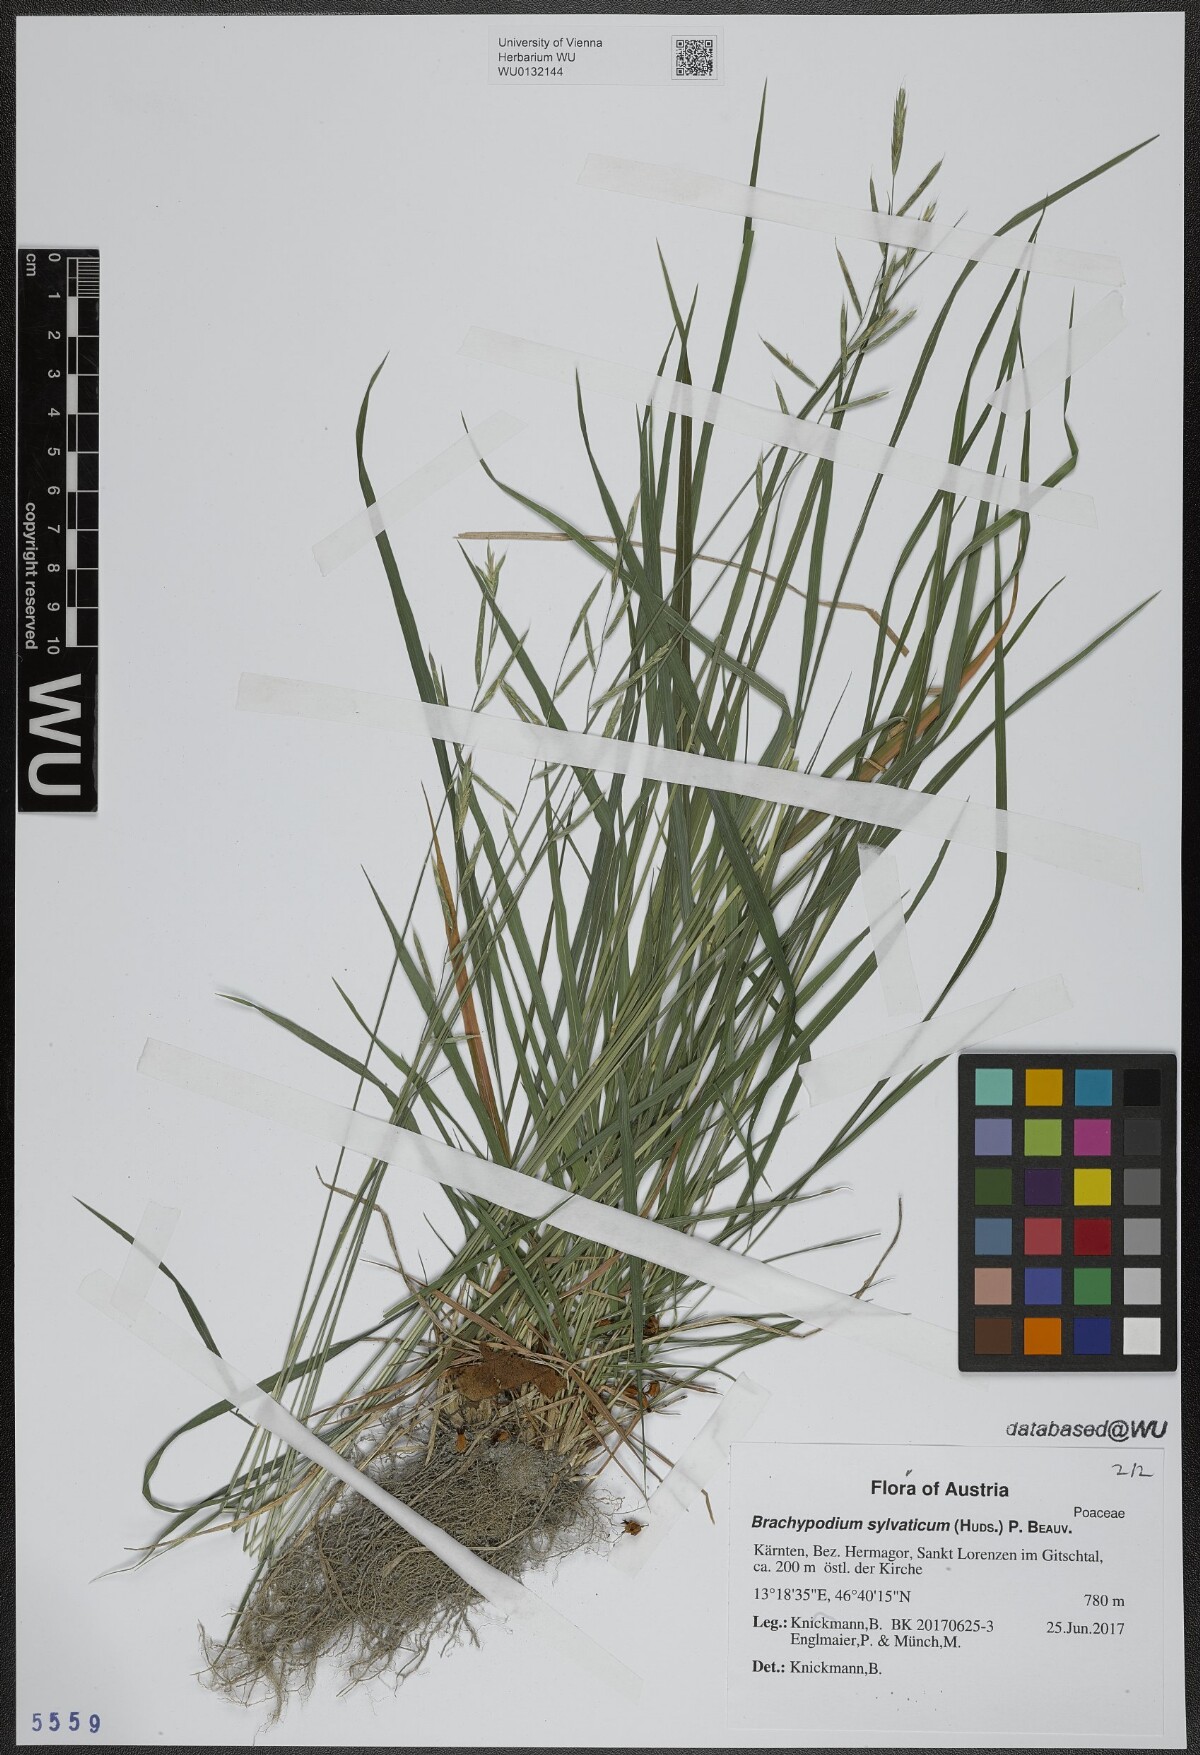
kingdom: Plantae
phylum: Tracheophyta
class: Liliopsida
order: Poales
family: Poaceae
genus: Brachypodium
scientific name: Brachypodium sylvaticum
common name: False-brome
